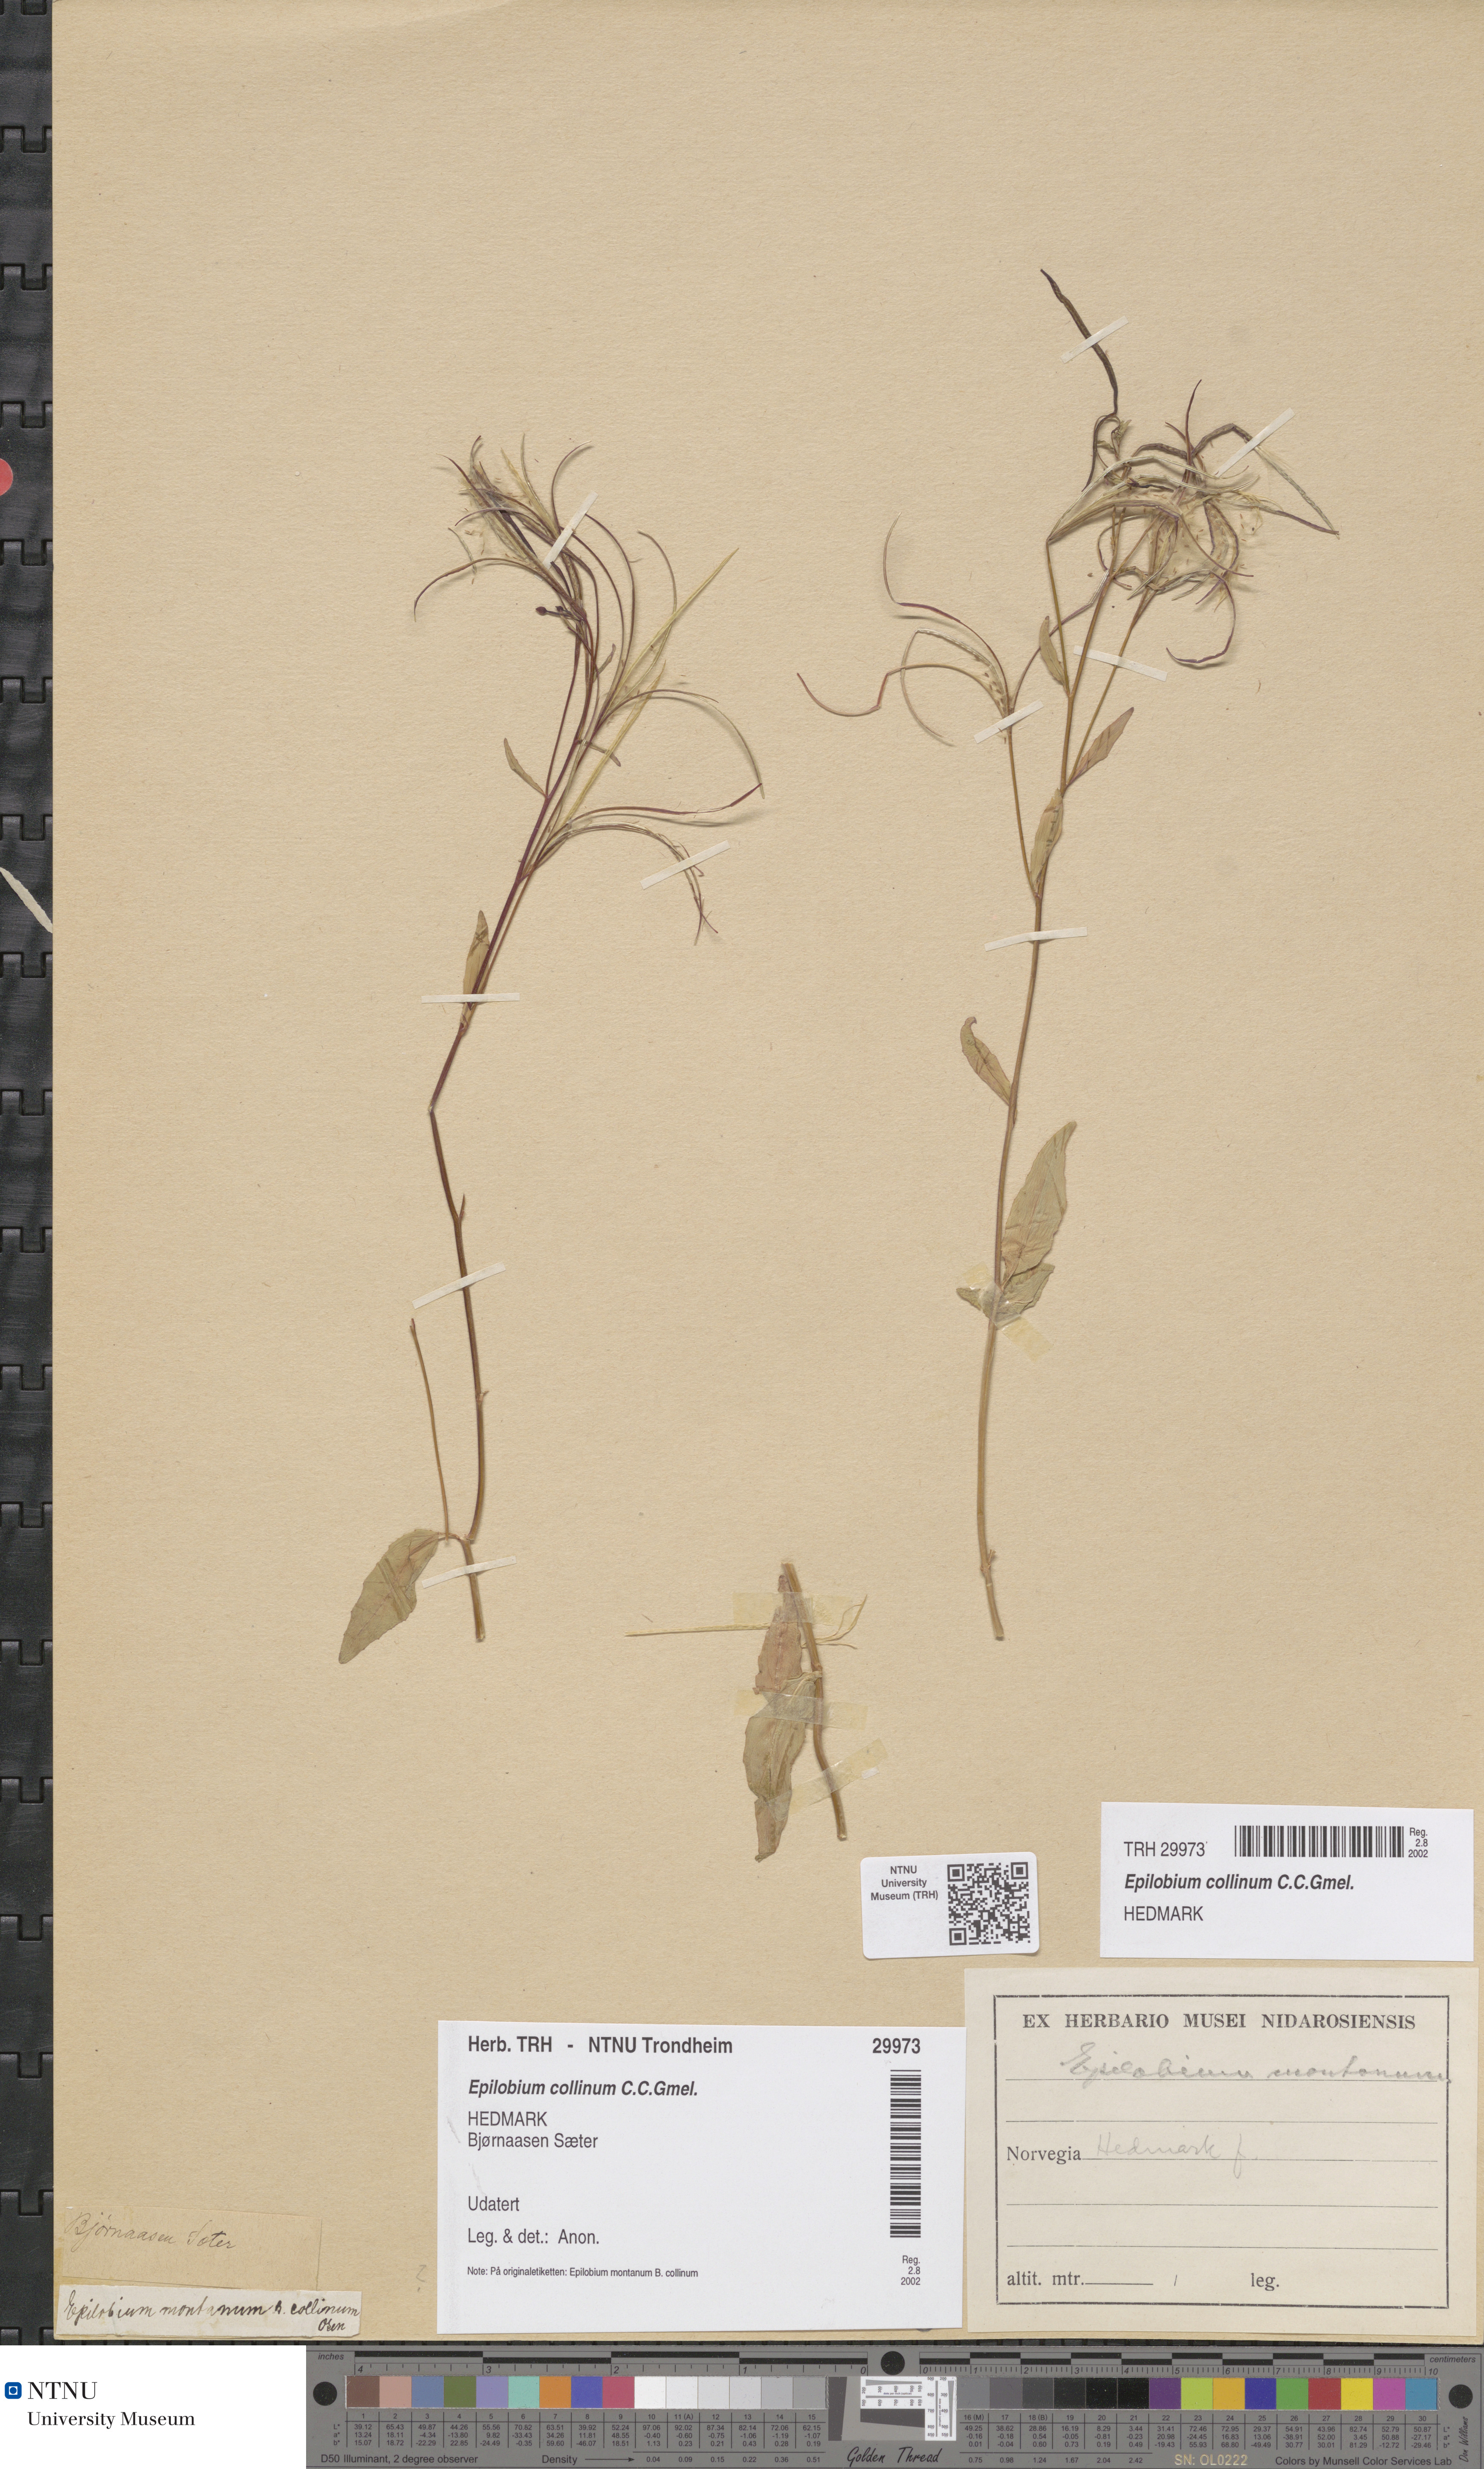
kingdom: Plantae
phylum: Tracheophyta
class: Magnoliopsida
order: Myrtales
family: Onagraceae
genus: Epilobium
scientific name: Epilobium collinum
